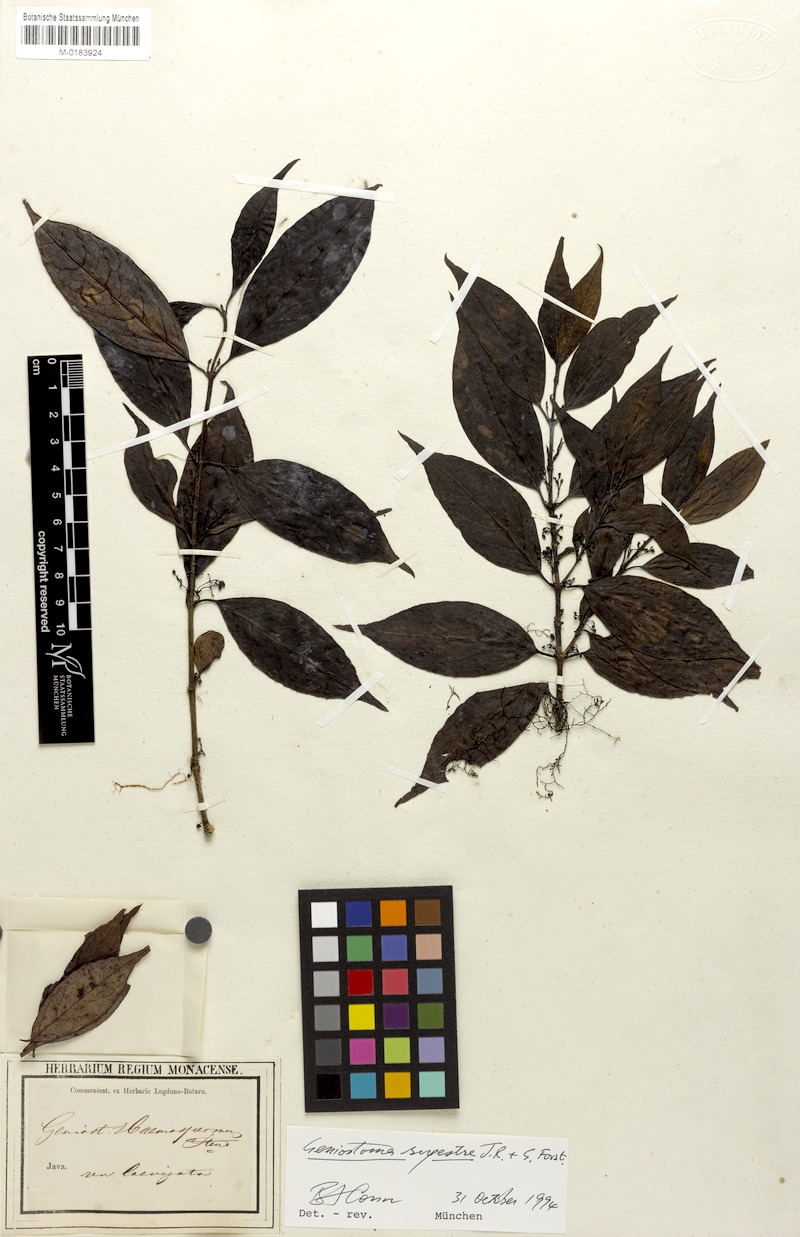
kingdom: Plantae
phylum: Tracheophyta
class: Magnoliopsida
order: Gentianales
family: Loganiaceae
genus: Geniostoma
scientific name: Geniostoma rupestre
